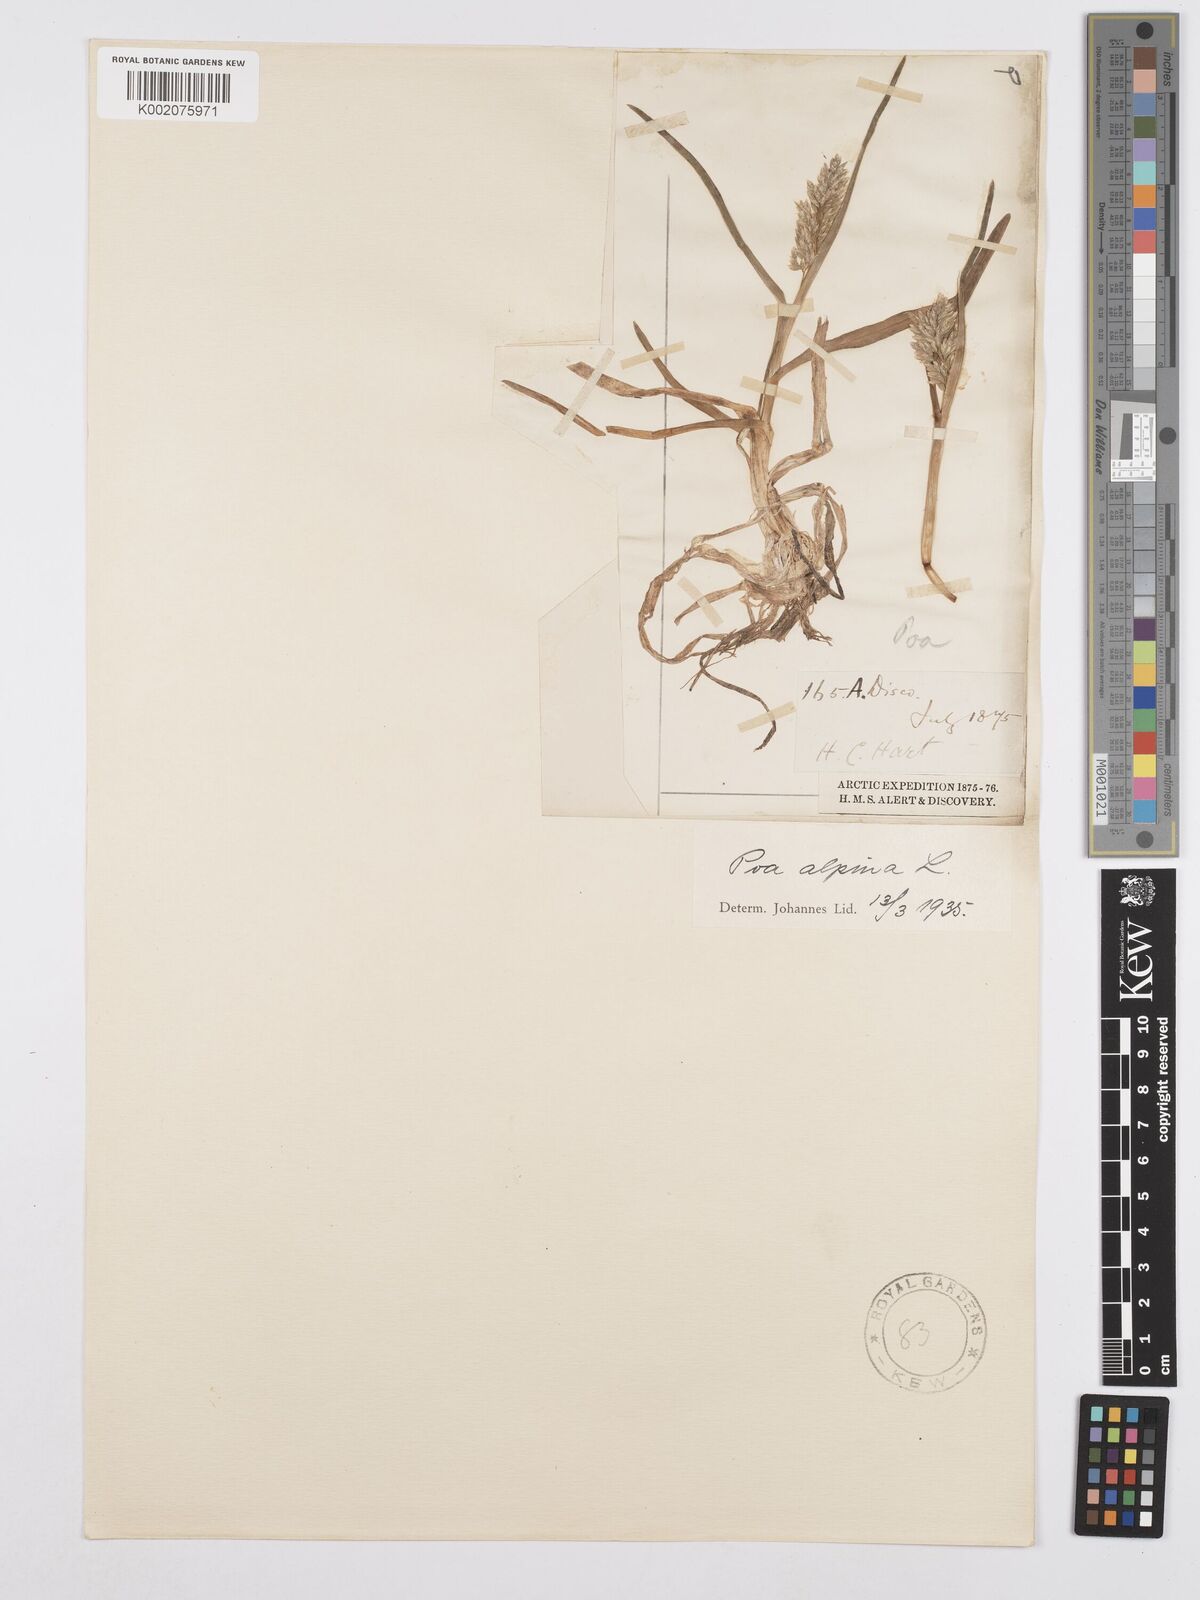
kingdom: Plantae
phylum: Tracheophyta
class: Liliopsida
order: Poales
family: Poaceae
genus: Poa
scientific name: Poa alpina
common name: Alpine bluegrass
